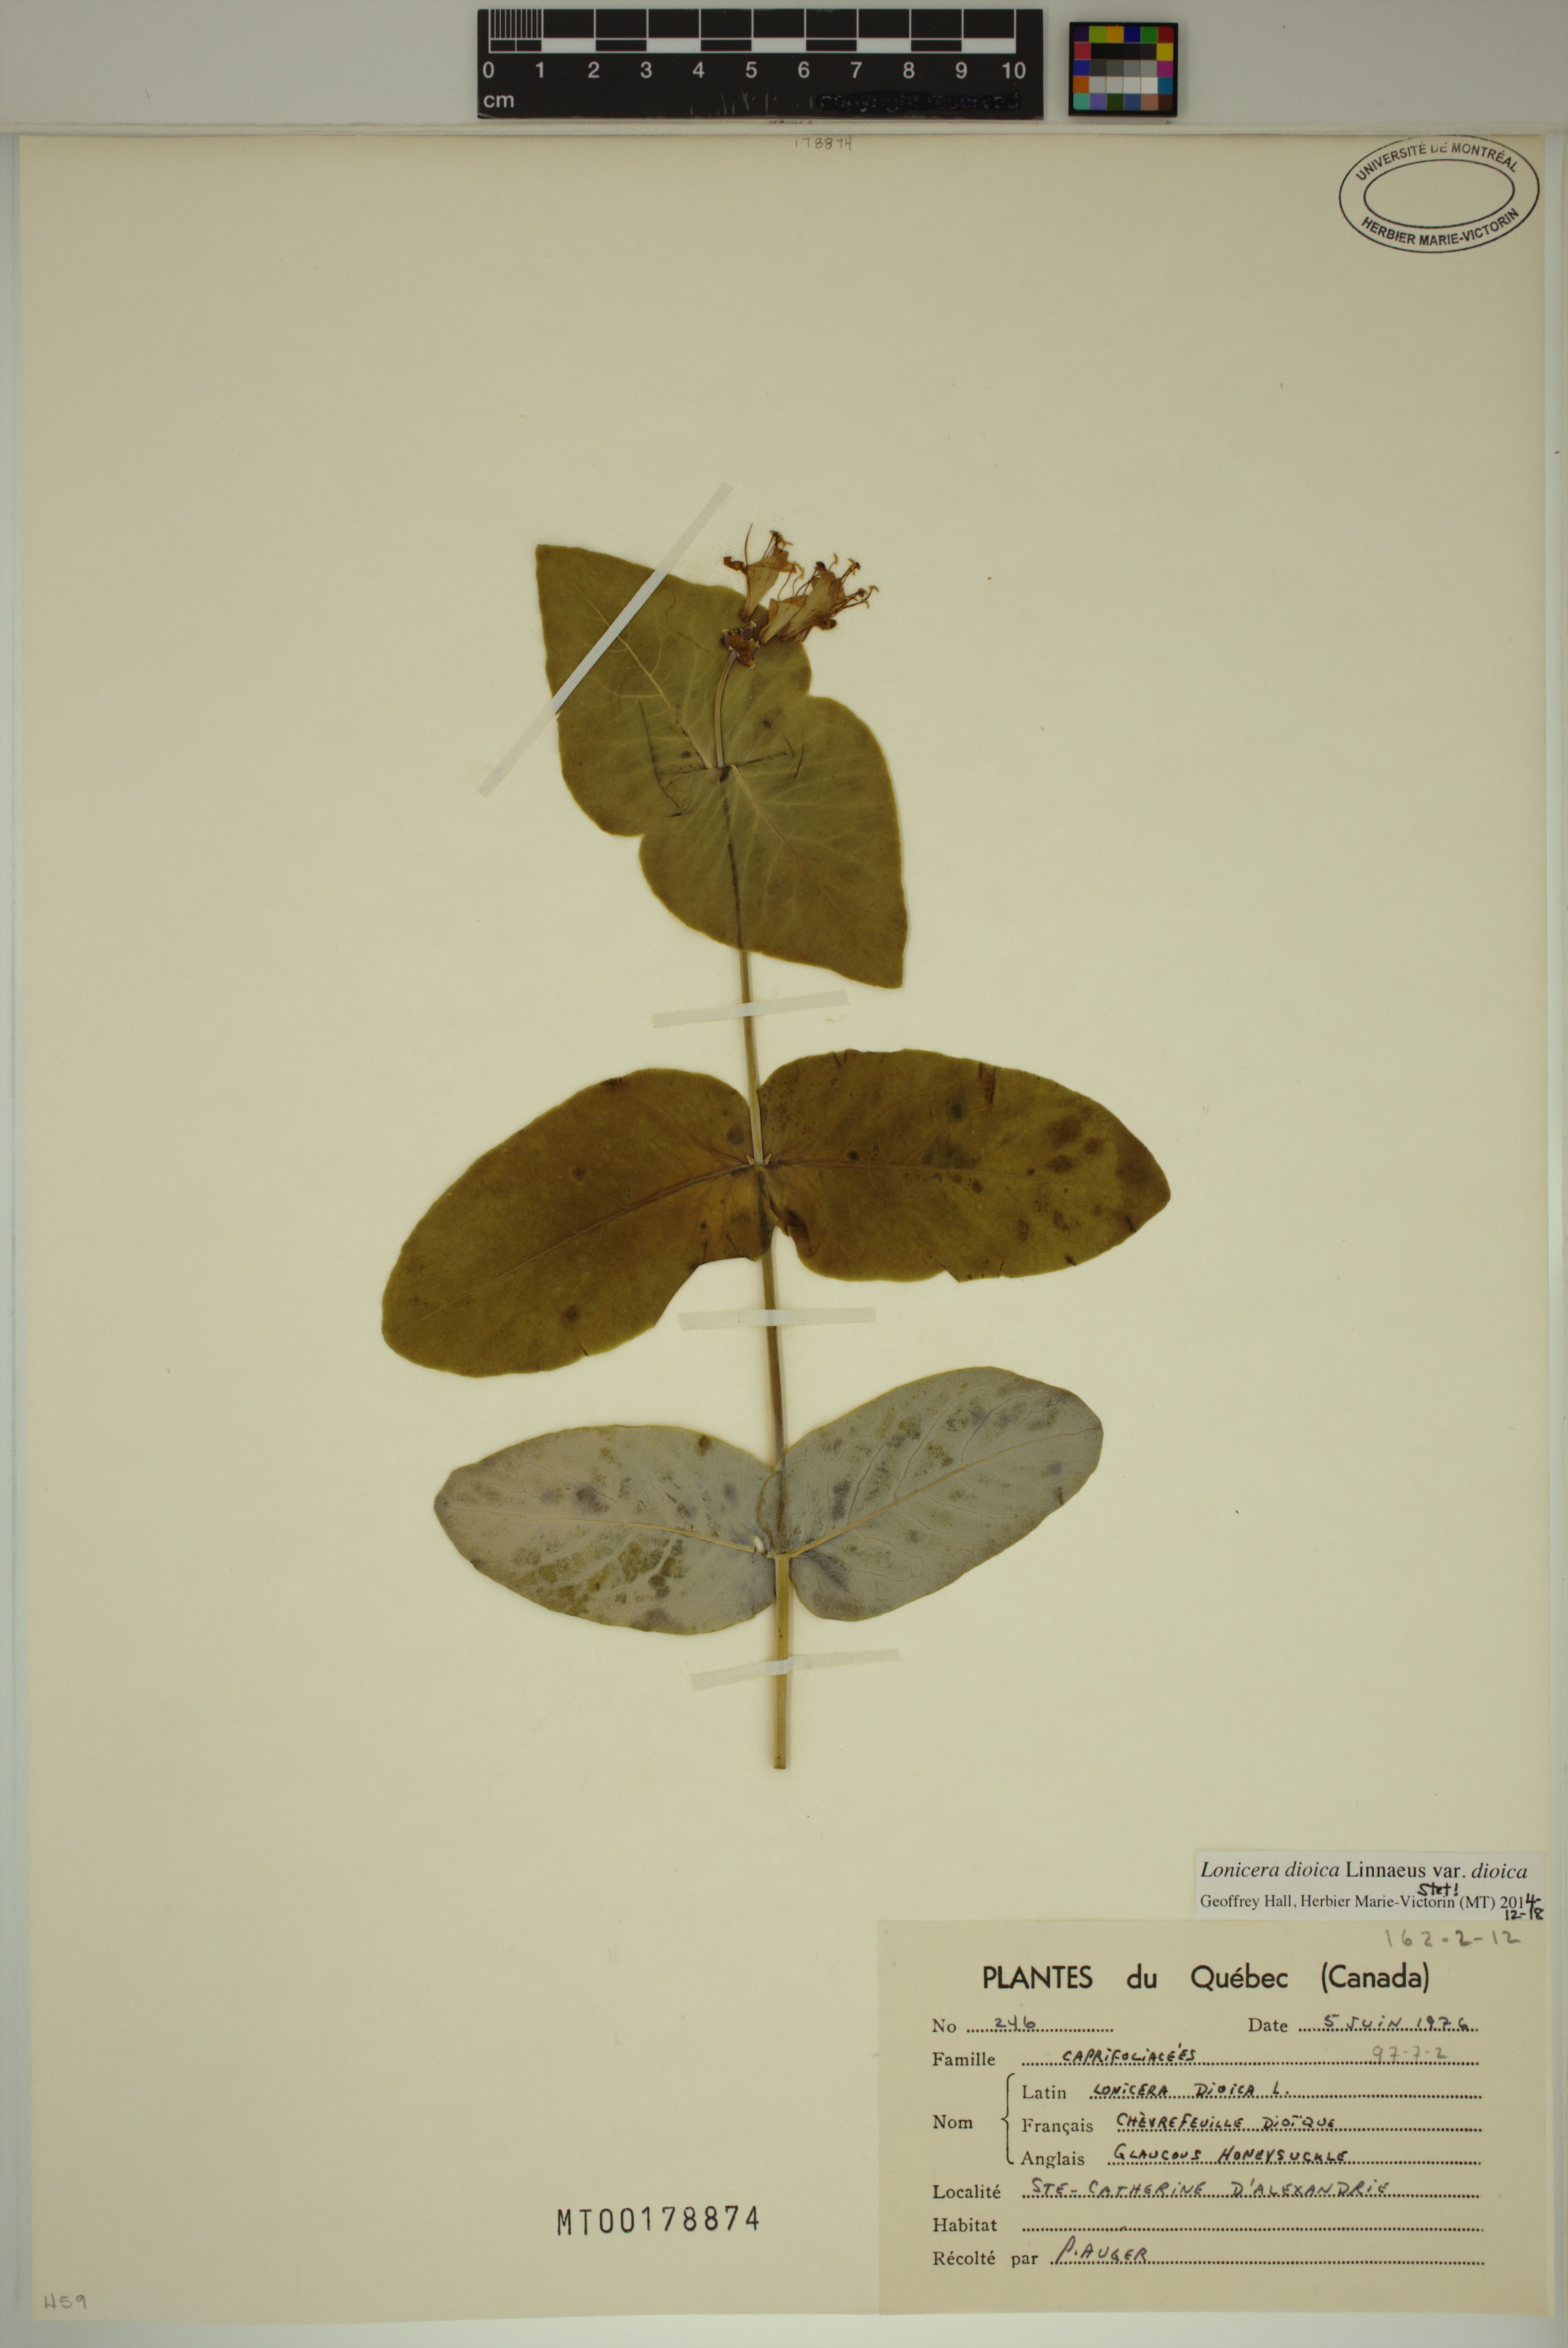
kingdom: Plantae
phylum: Tracheophyta
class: Magnoliopsida
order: Dipsacales
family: Caprifoliaceae
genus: Lonicera
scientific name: Lonicera dioica
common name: Limber honeysuckle
